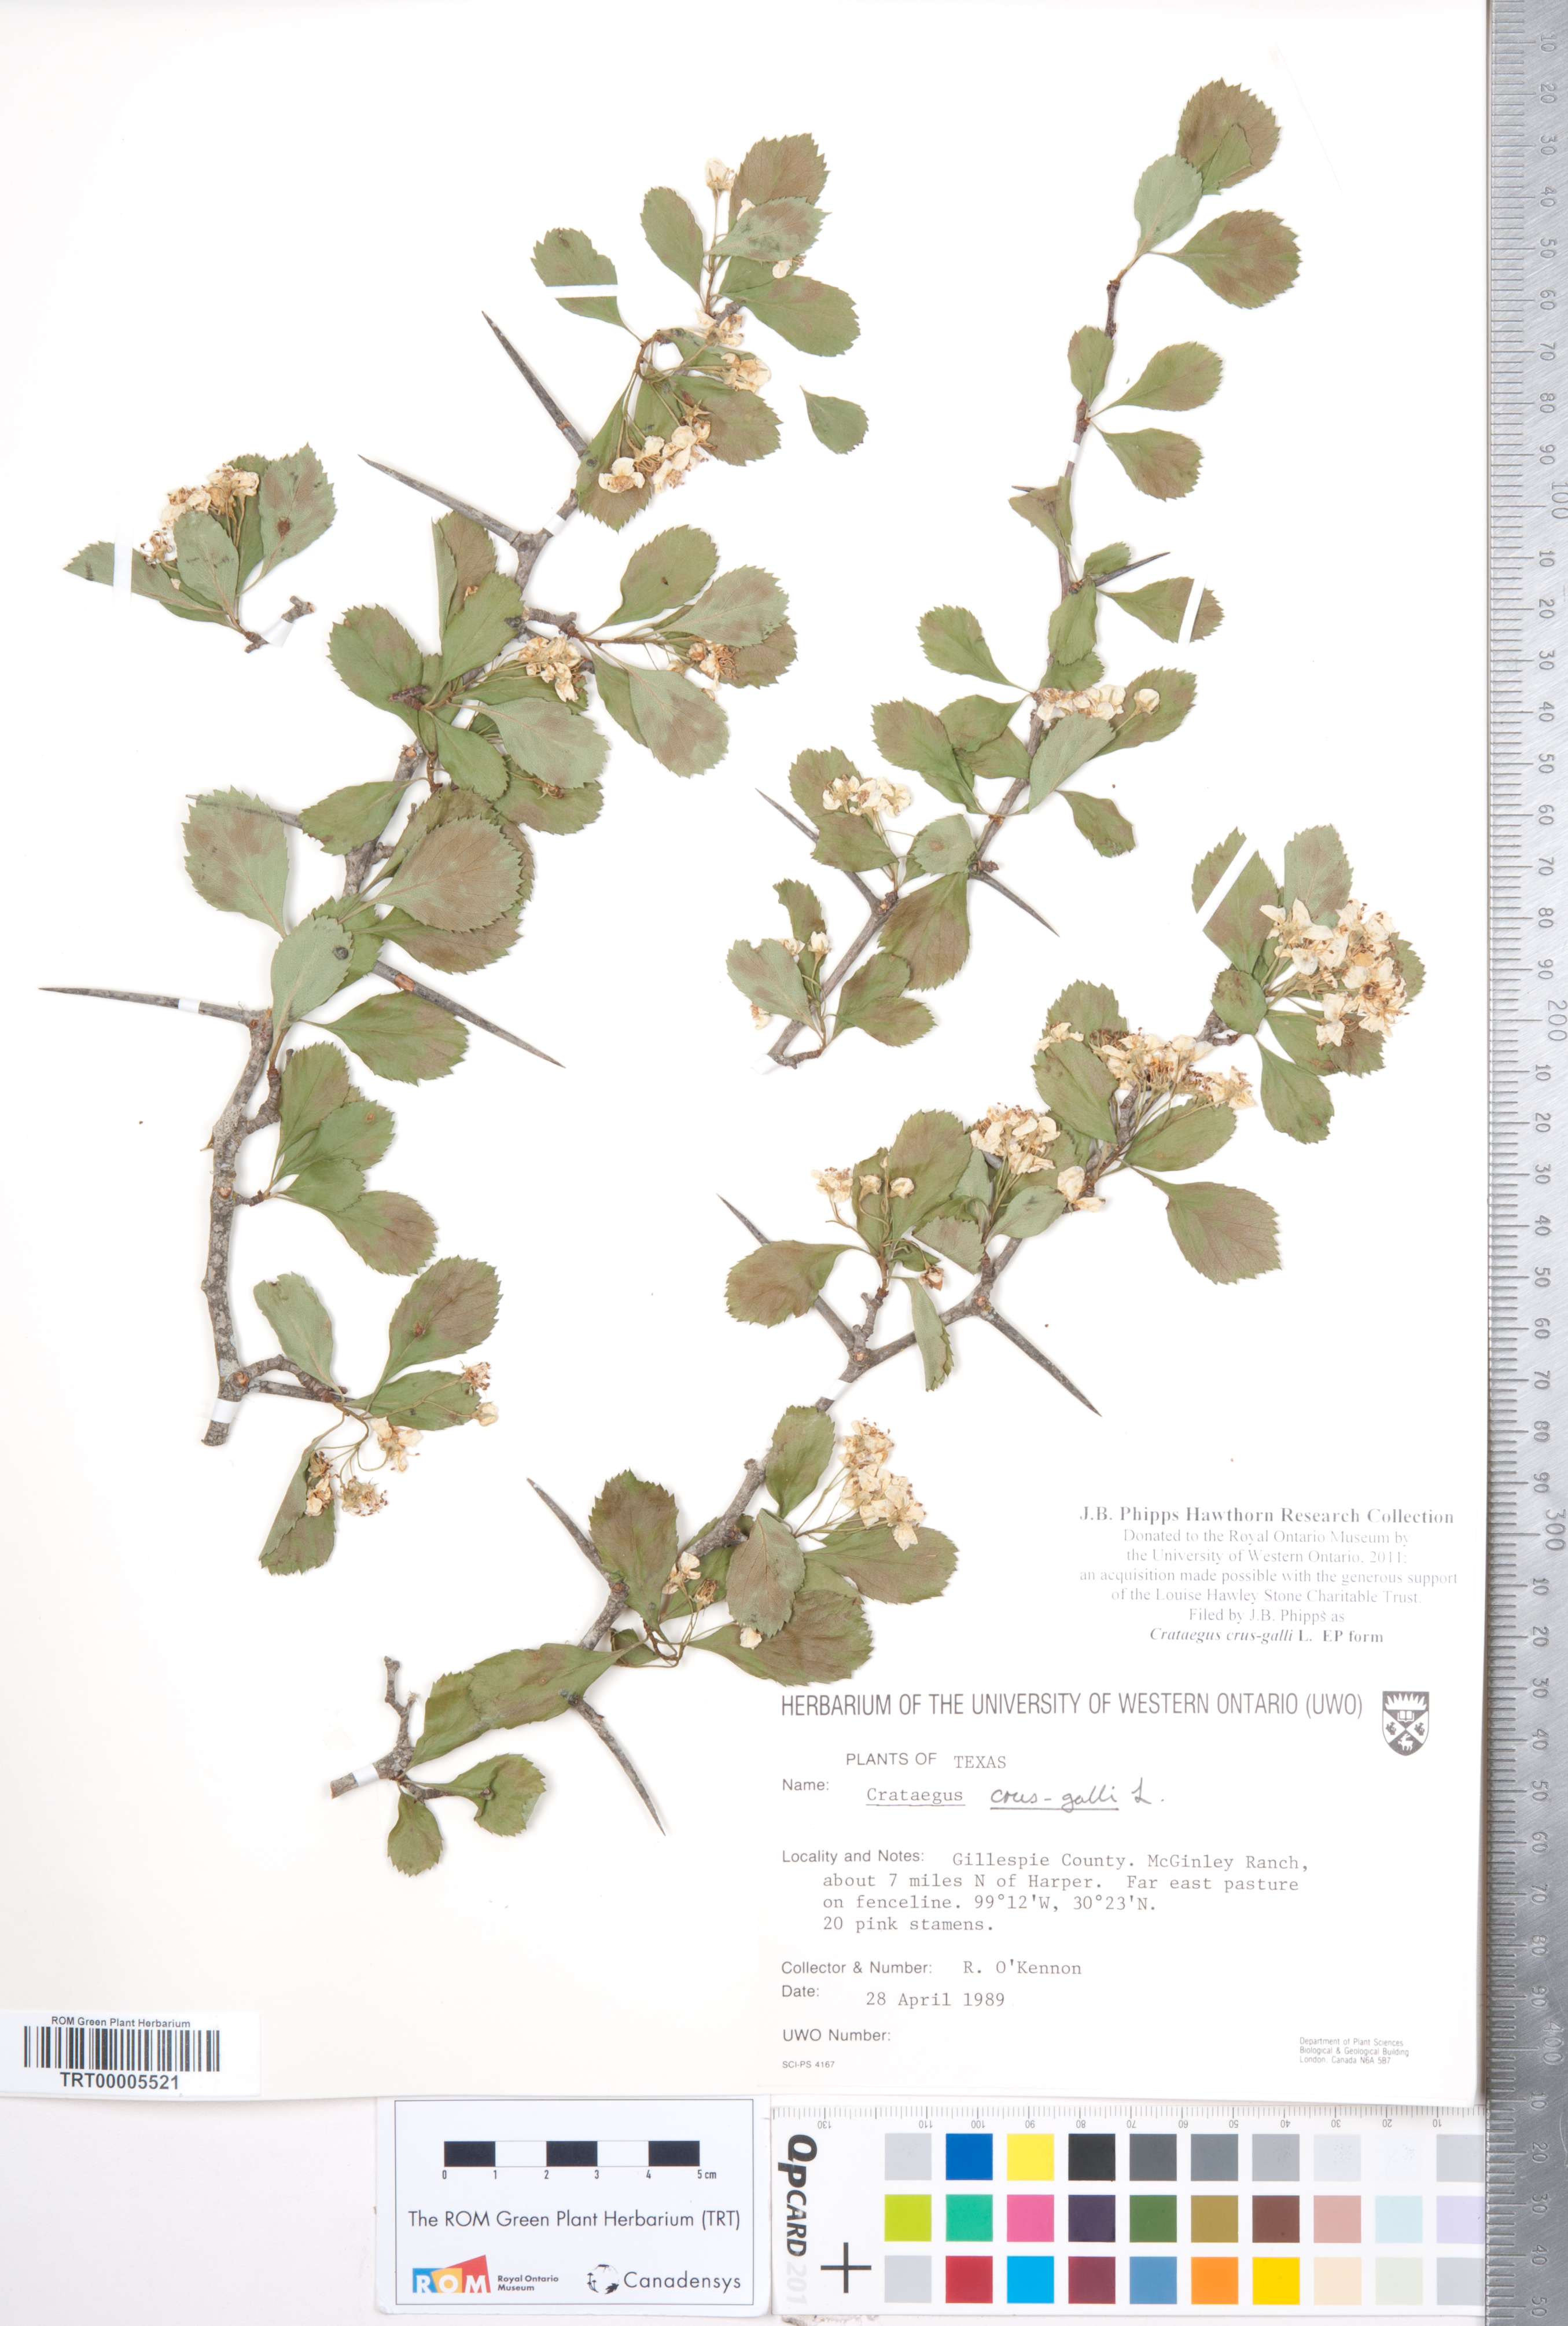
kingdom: Plantae
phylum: Tracheophyta
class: Magnoliopsida
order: Rosales
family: Rosaceae
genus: Crataegus
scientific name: Crataegus crus-galli
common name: Cockspurthorn
